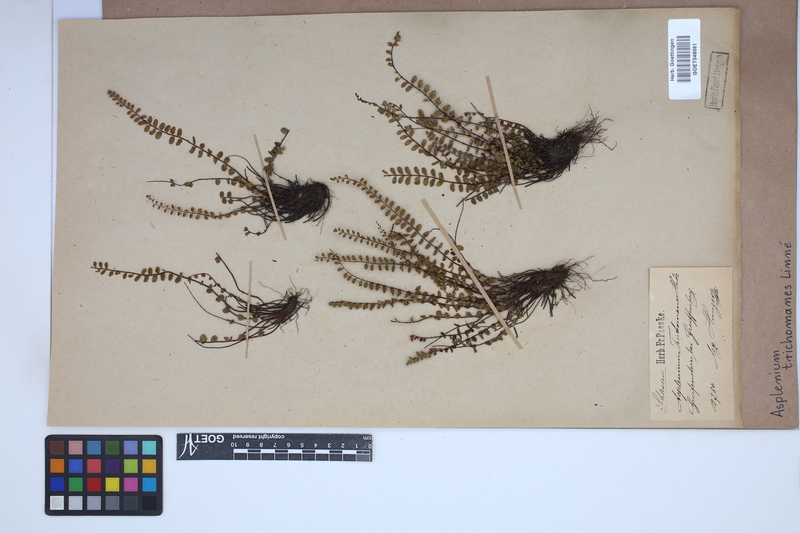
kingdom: Plantae
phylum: Tracheophyta
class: Polypodiopsida
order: Polypodiales
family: Aspleniaceae
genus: Asplenium
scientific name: Asplenium trichomanes
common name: Maidenhair spleenwort
